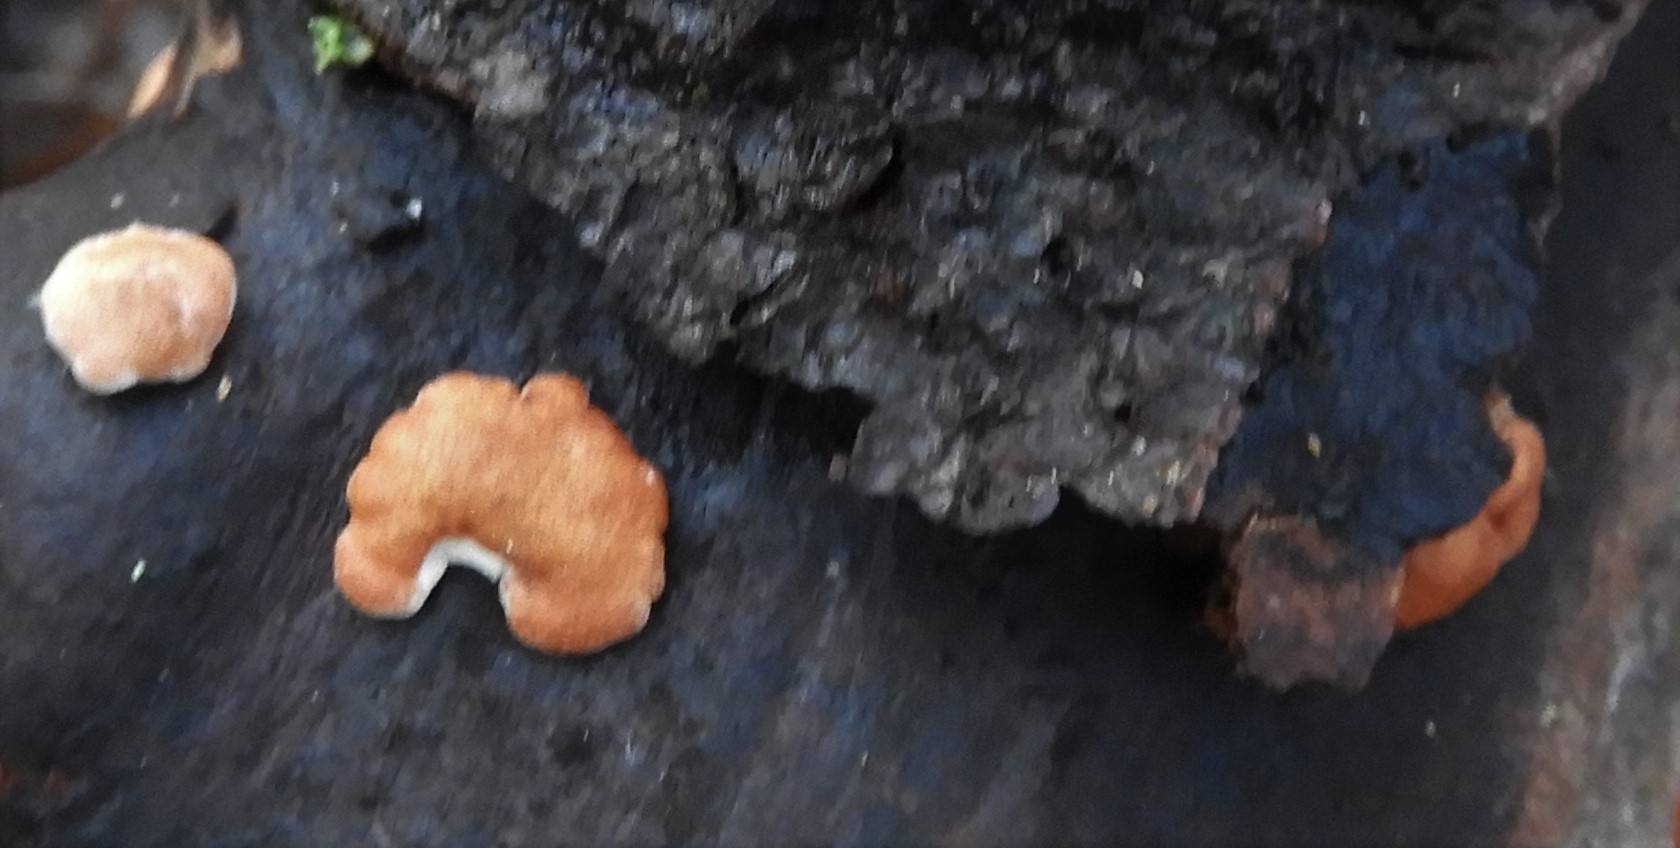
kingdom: Fungi
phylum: Ascomycota
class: Sordariomycetes
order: Hypocreales
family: Hypocreaceae
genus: Trichoderma
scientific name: Trichoderma europaeum
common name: rosabrun kødkerne
